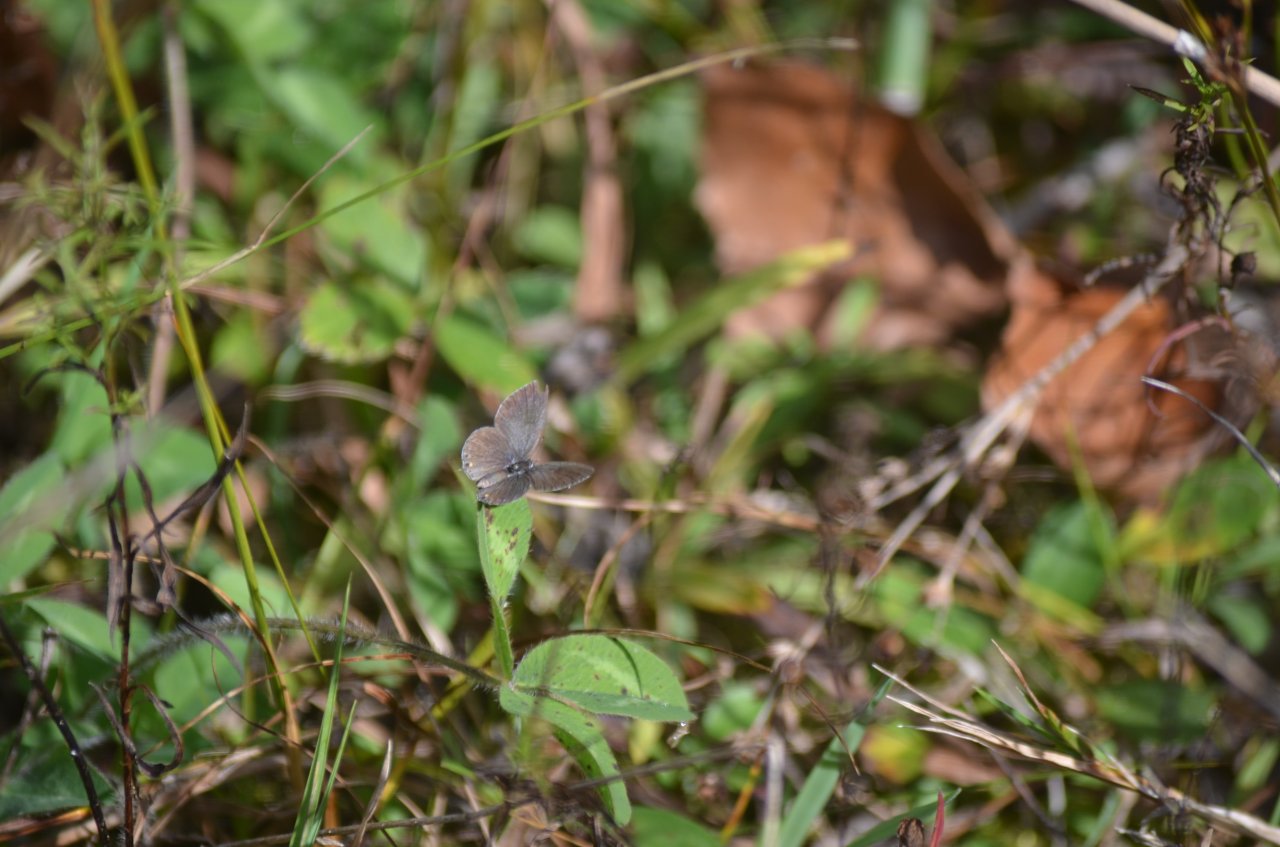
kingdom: Animalia
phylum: Arthropoda
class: Insecta
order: Lepidoptera
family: Lycaenidae
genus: Elkalyce
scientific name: Elkalyce comyntas
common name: Eastern Tailed-Blue
